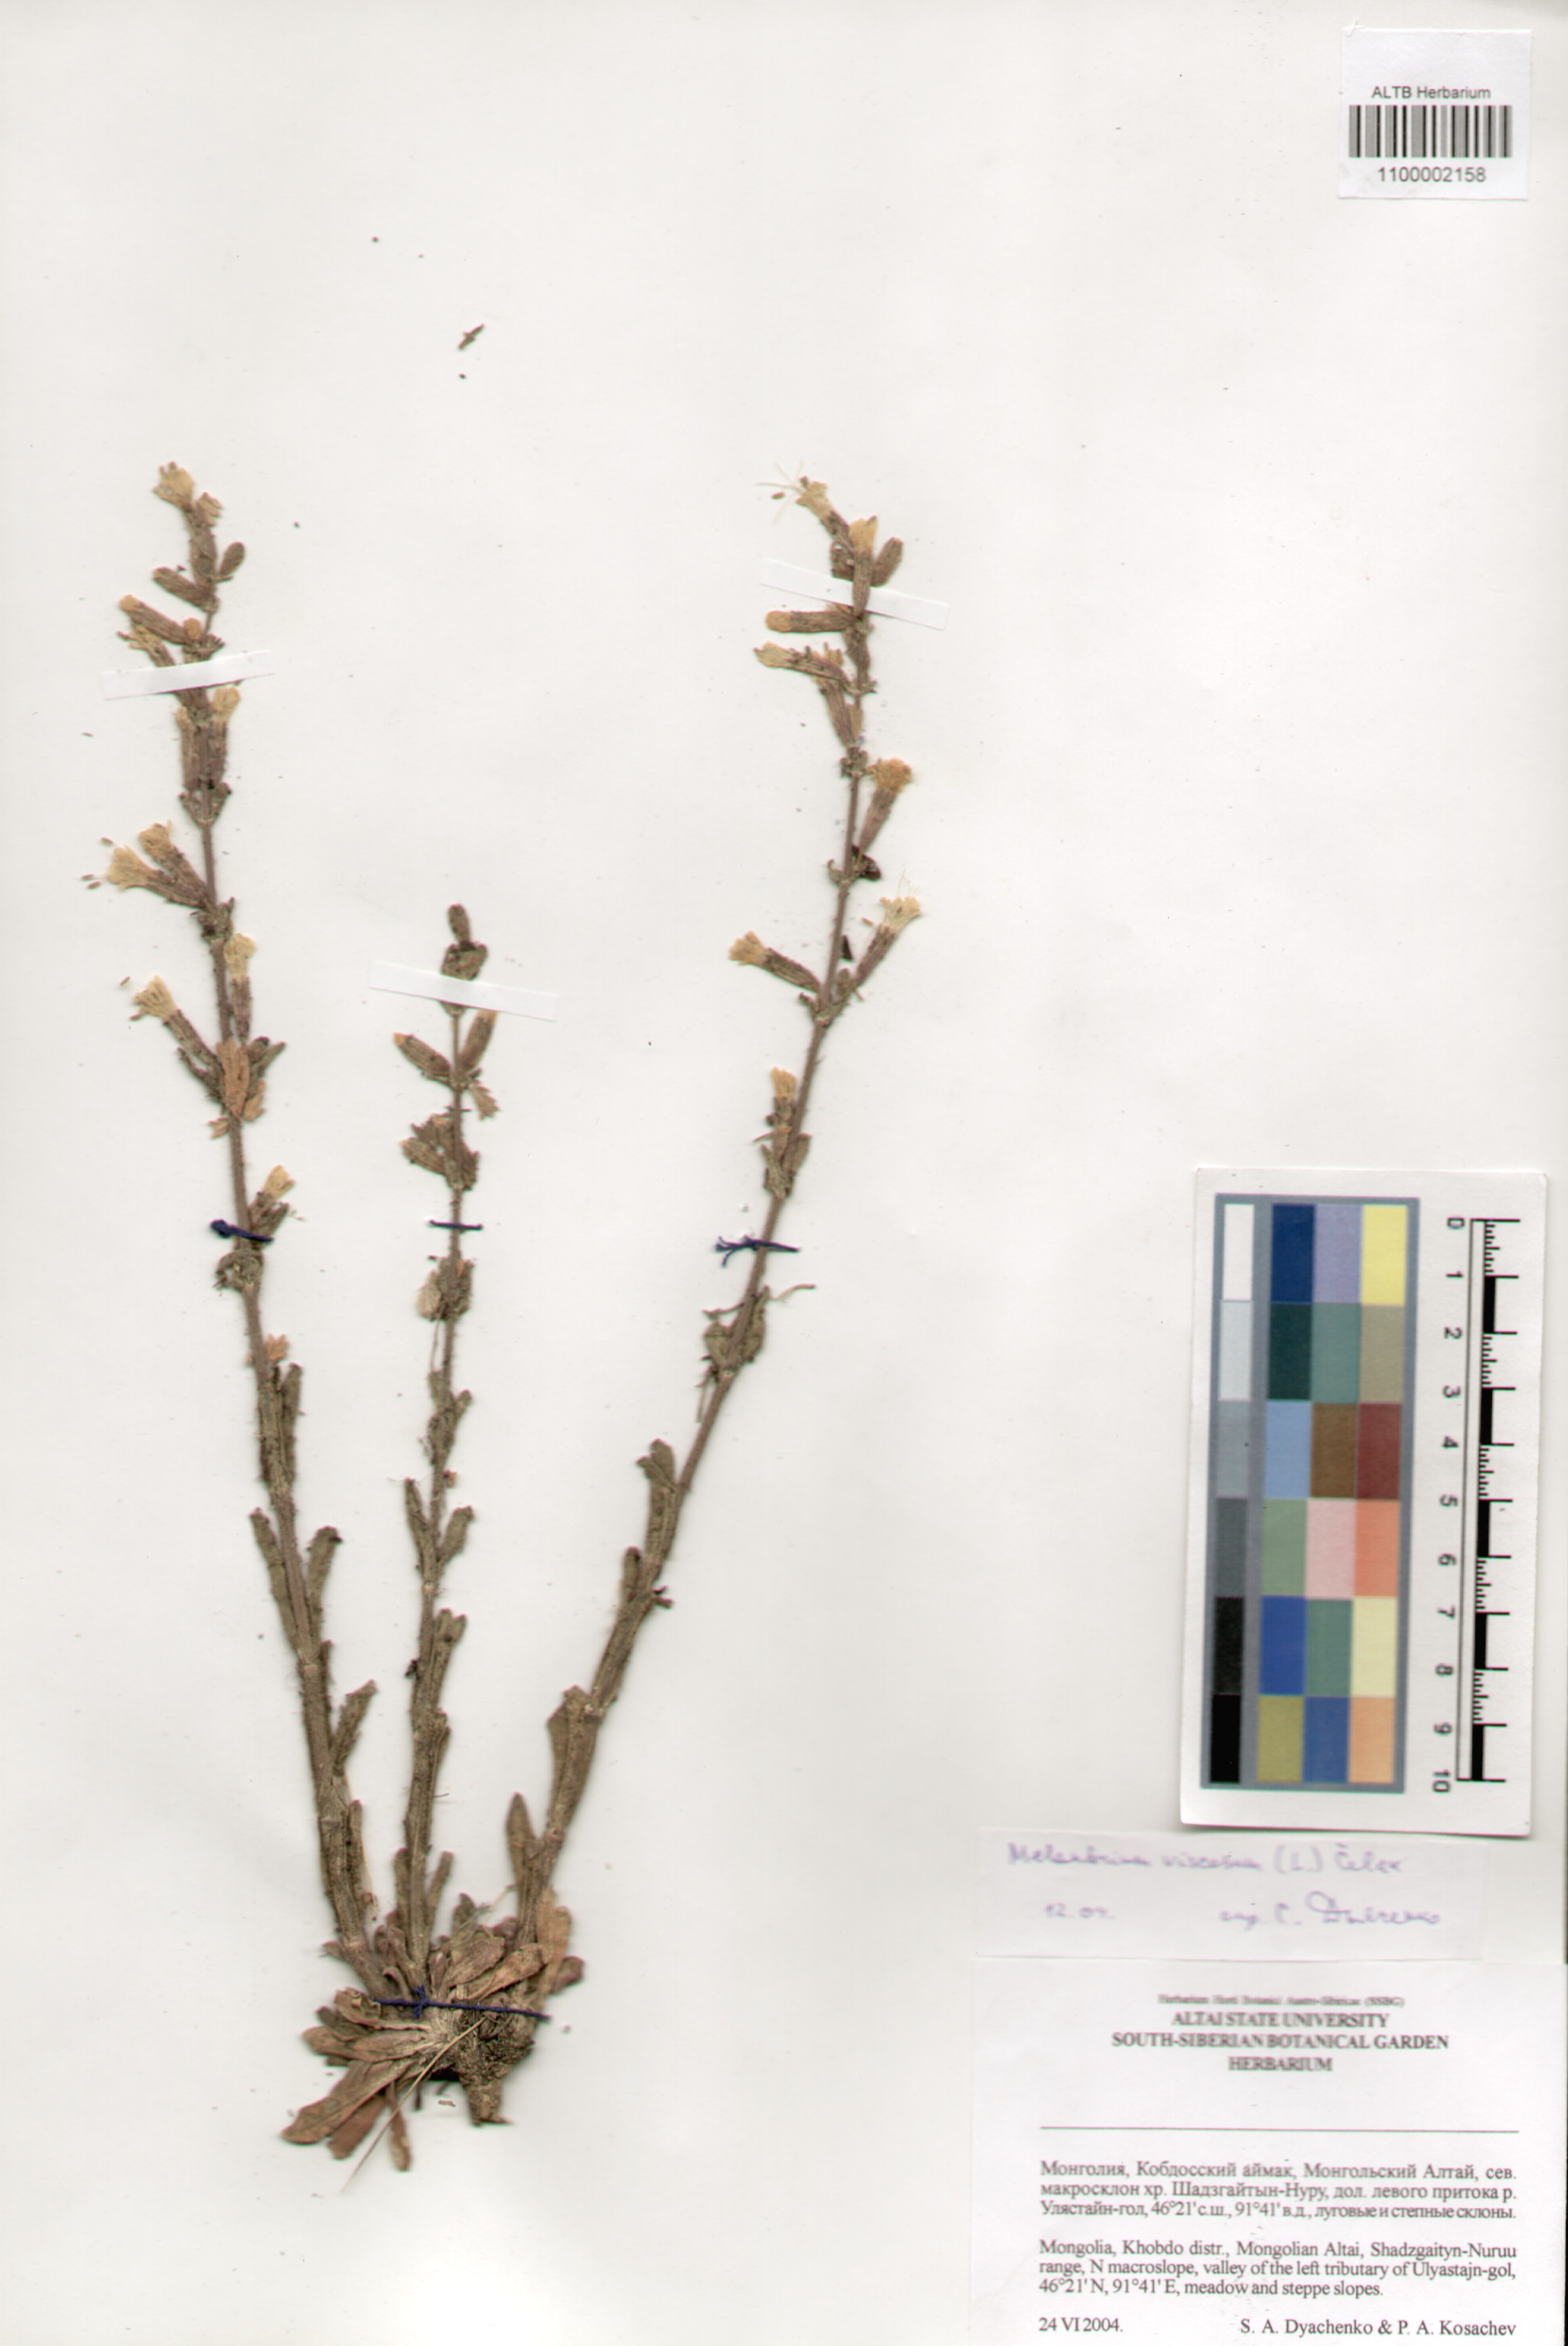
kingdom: Plantae
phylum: Tracheophyta
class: Magnoliopsida
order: Caryophyllales
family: Caryophyllaceae
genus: Silene
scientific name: Silene viscosa
